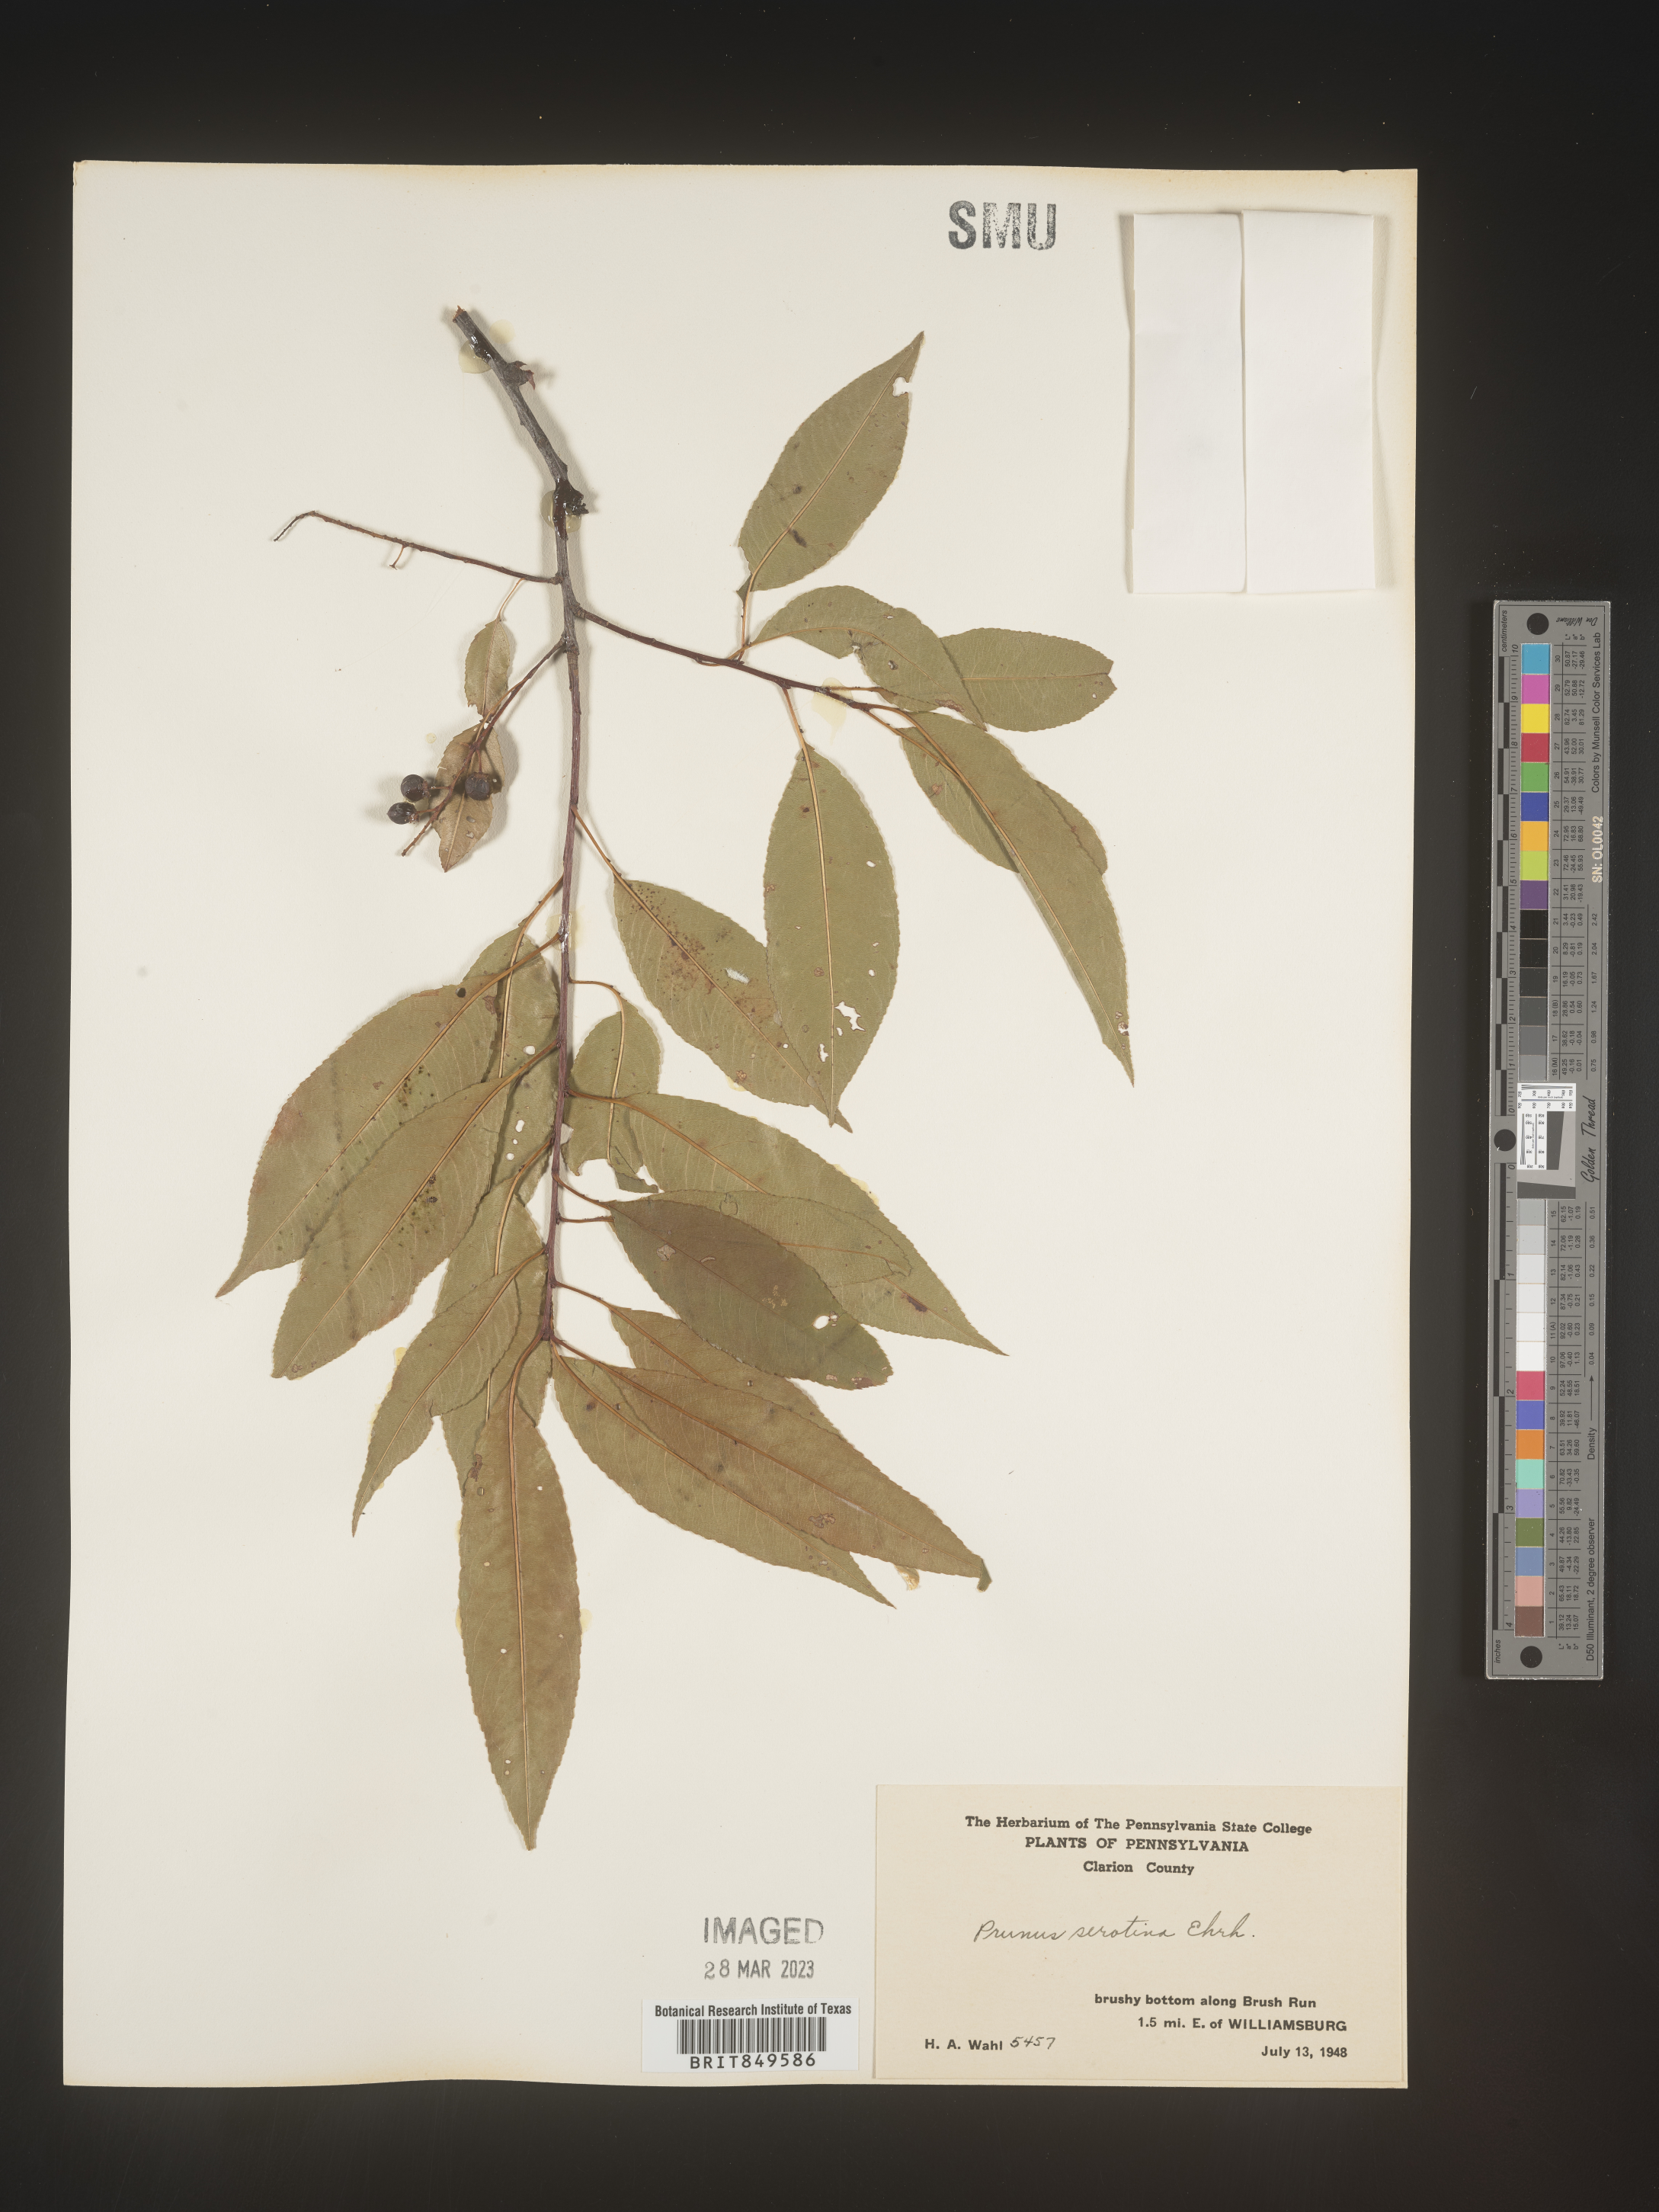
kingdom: Plantae
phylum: Tracheophyta
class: Magnoliopsida
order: Rosales
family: Rosaceae
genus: Prunus
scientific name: Prunus serotina
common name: Black cherry
